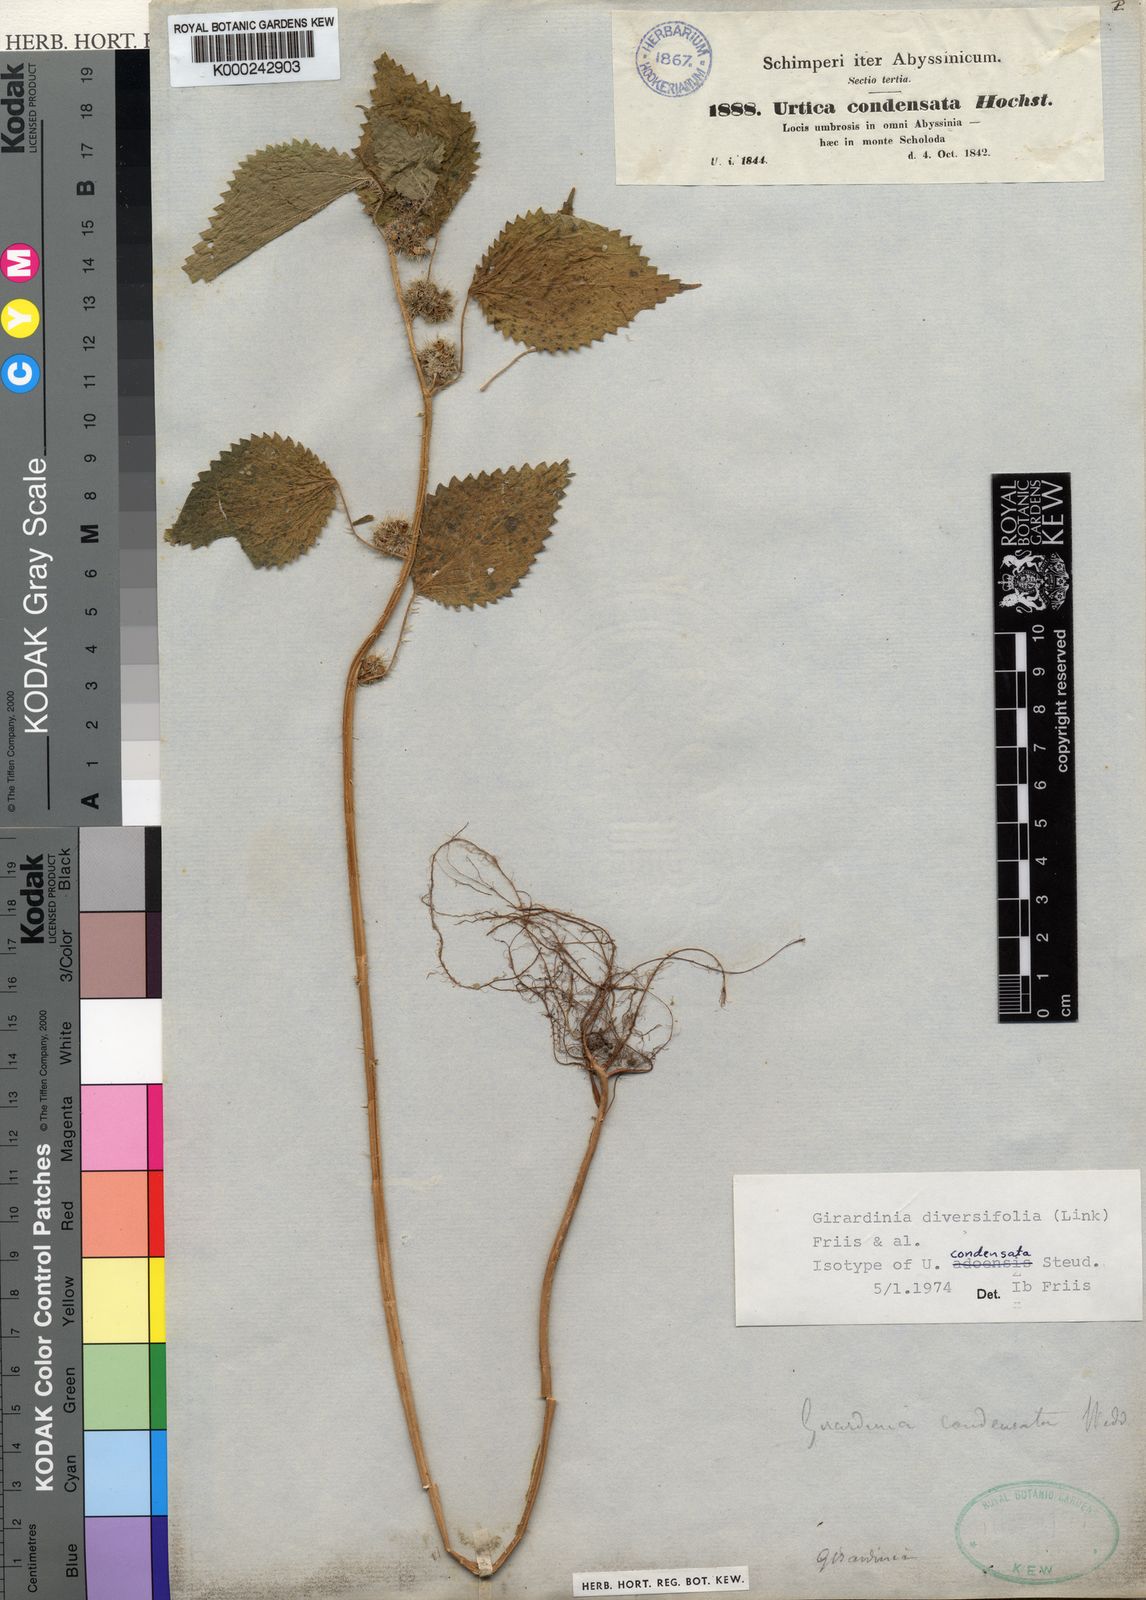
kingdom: Plantae
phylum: Tracheophyta
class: Magnoliopsida
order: Rosales
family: Urticaceae
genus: Girardinia
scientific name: Girardinia diversifolia
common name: Himalayan-nettle
